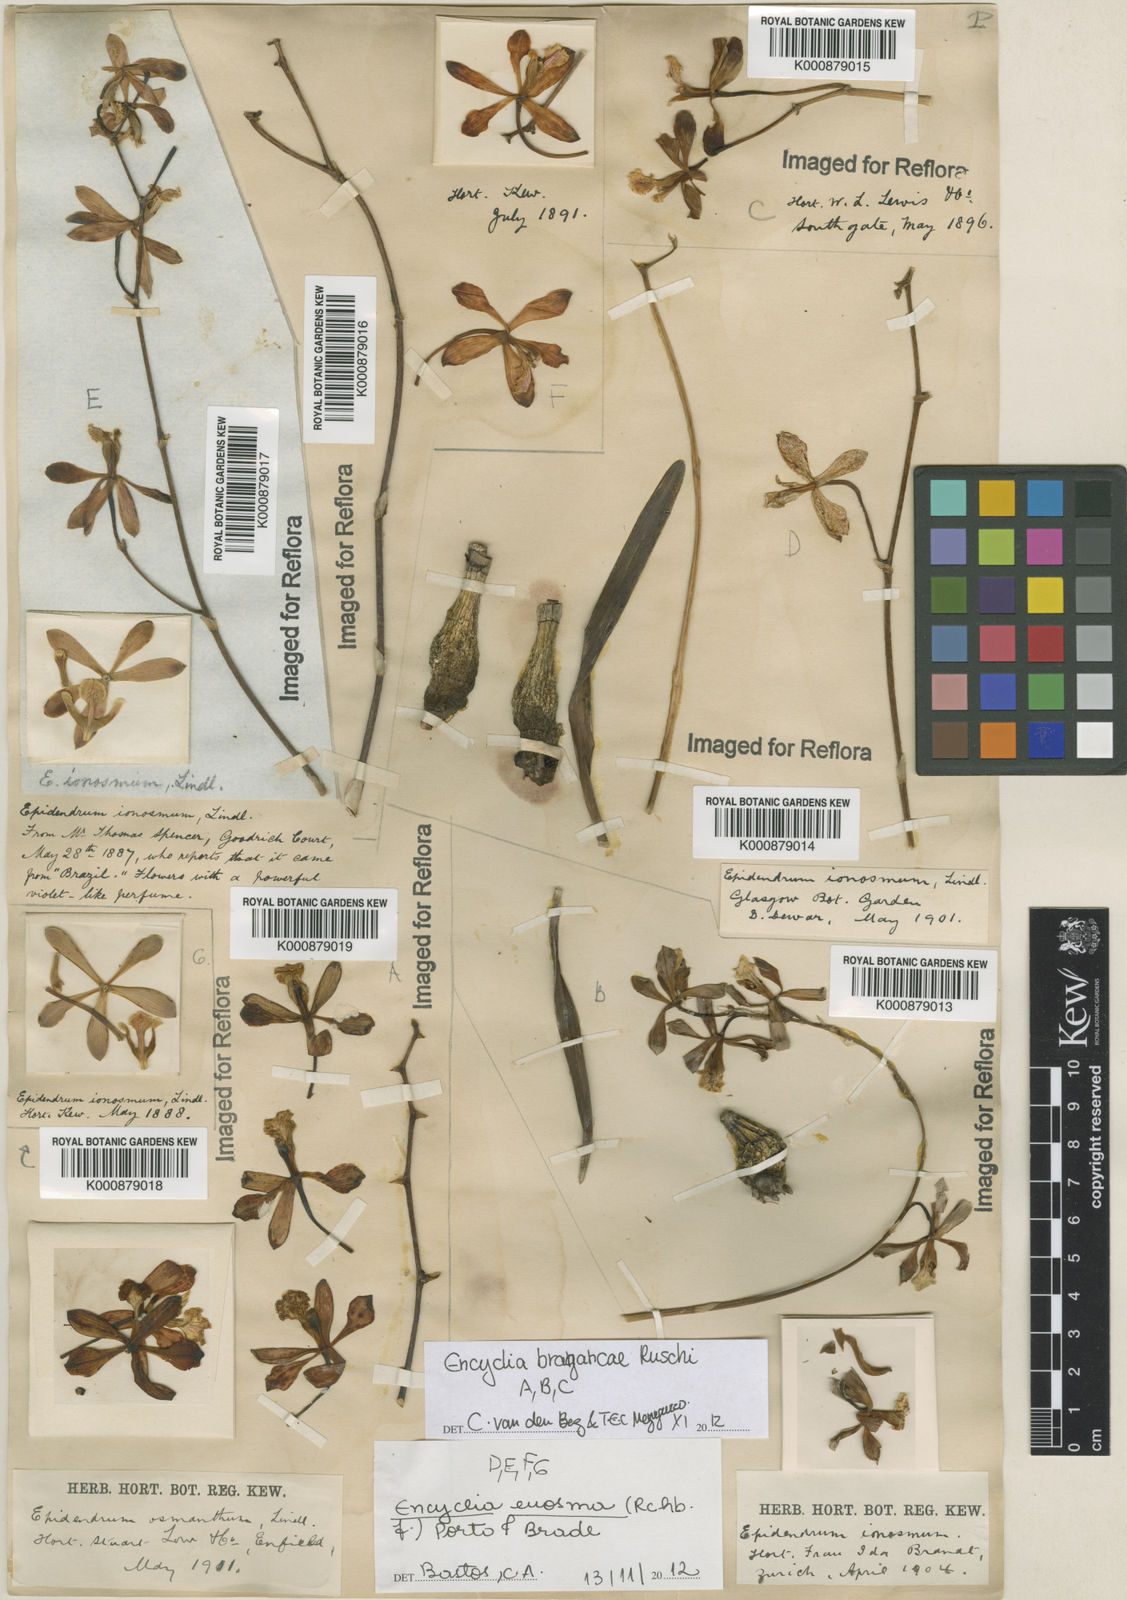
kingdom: Plantae
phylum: Tracheophyta
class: Liliopsida
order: Asparagales
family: Orchidaceae
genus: Encyclia
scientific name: Encyclia ionosma
